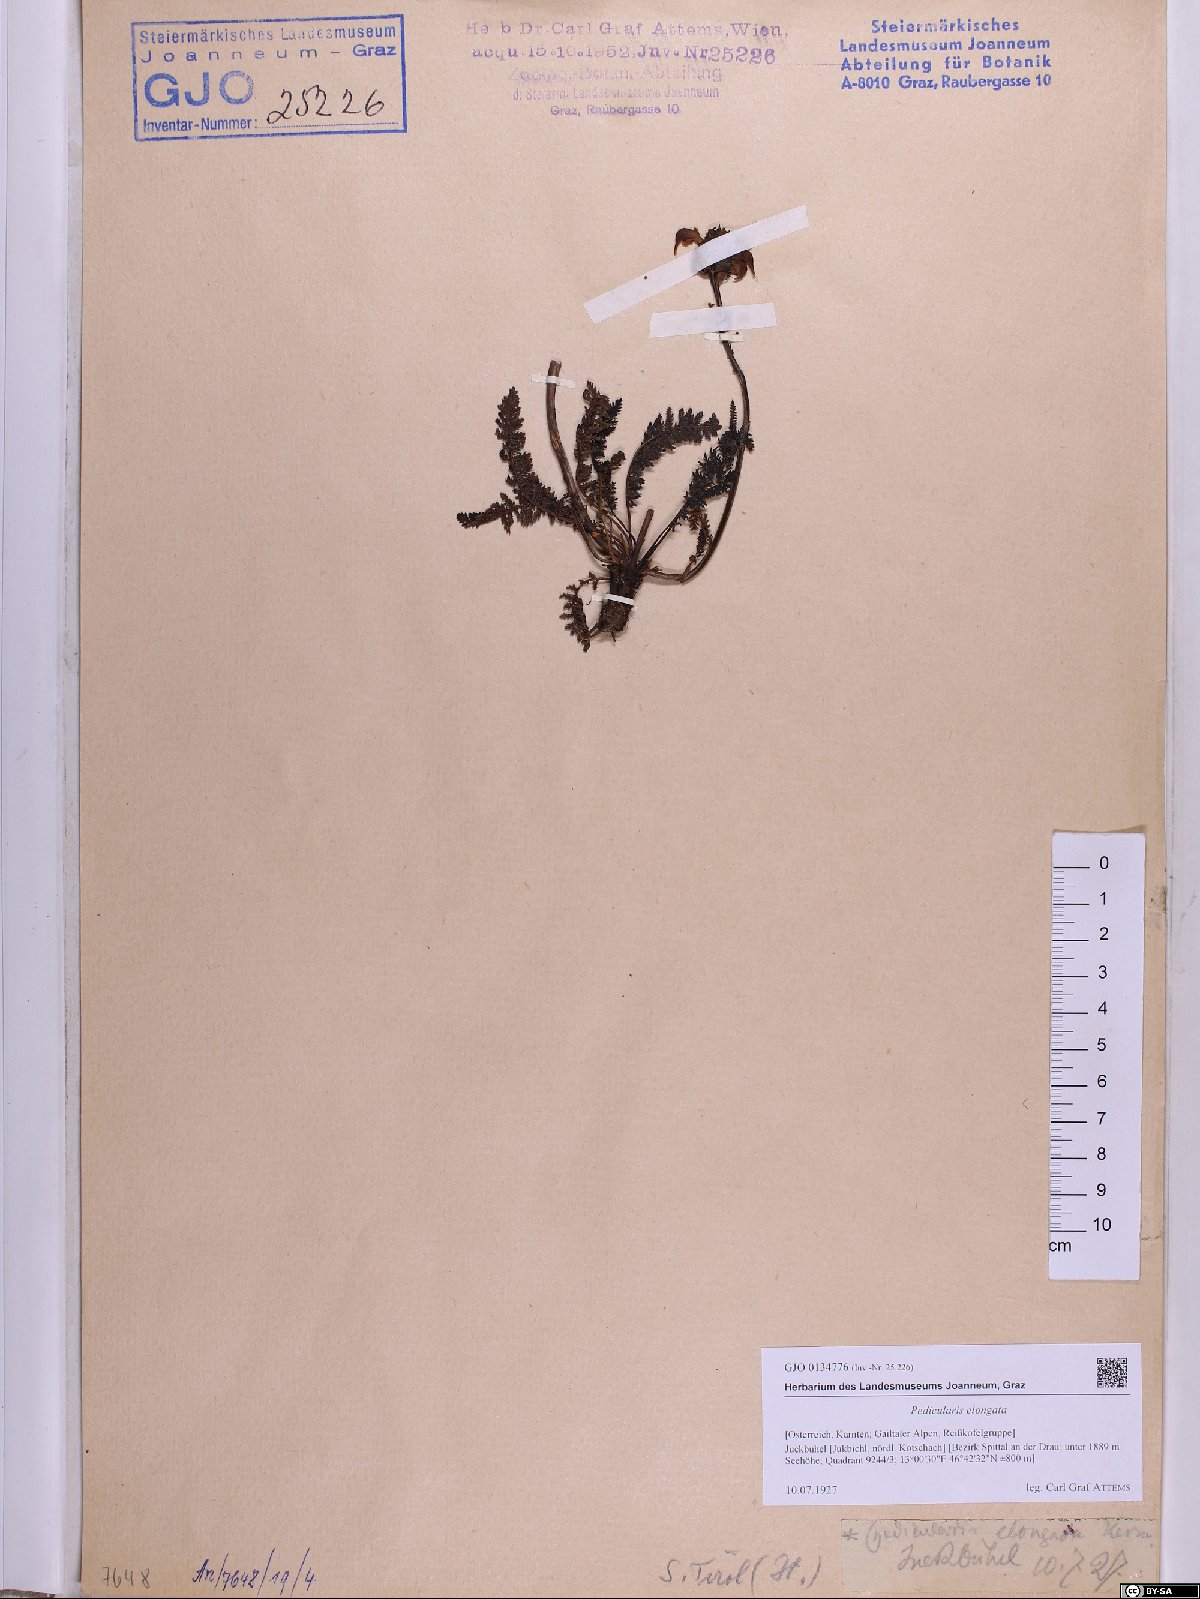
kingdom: Plantae
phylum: Tracheophyta
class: Magnoliopsida
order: Lamiales
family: Orobanchaceae
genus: Pedicularis
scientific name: Pedicularis elongata
